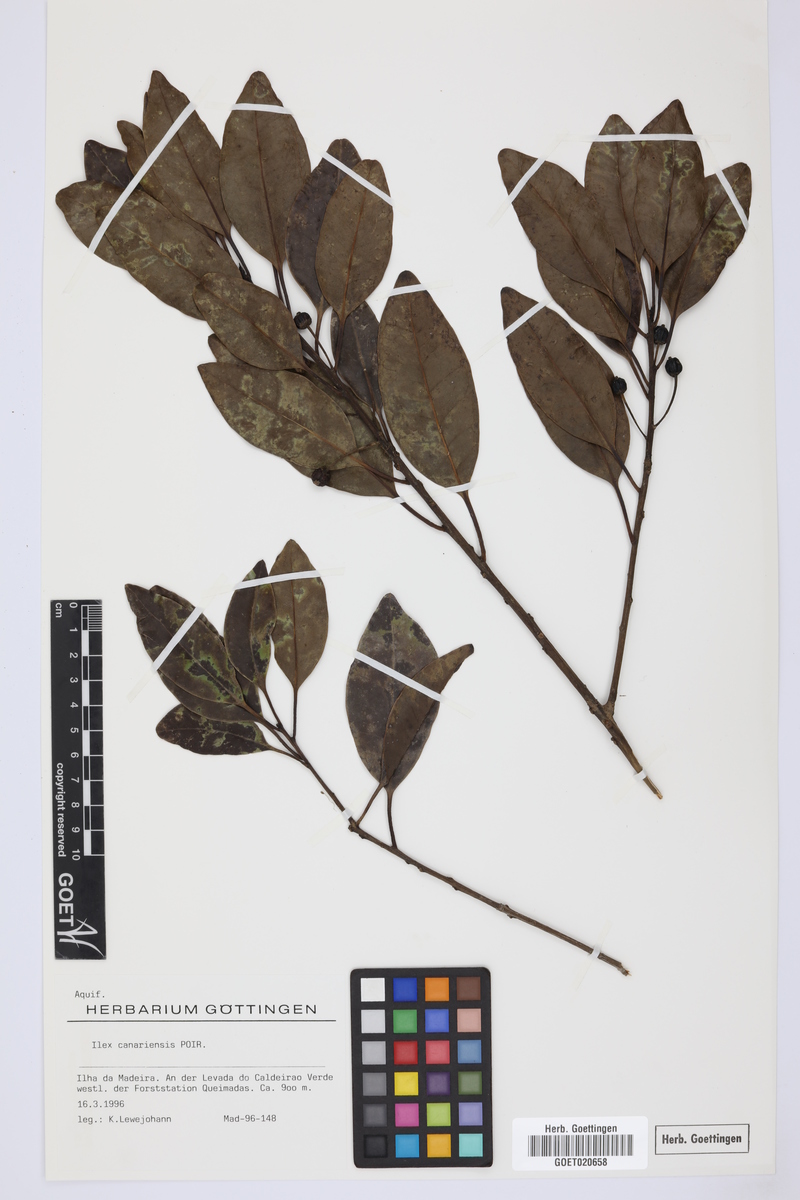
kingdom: Plantae
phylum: Tracheophyta
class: Magnoliopsida
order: Aquifoliales
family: Aquifoliaceae
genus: Ilex
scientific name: Ilex canariensis
